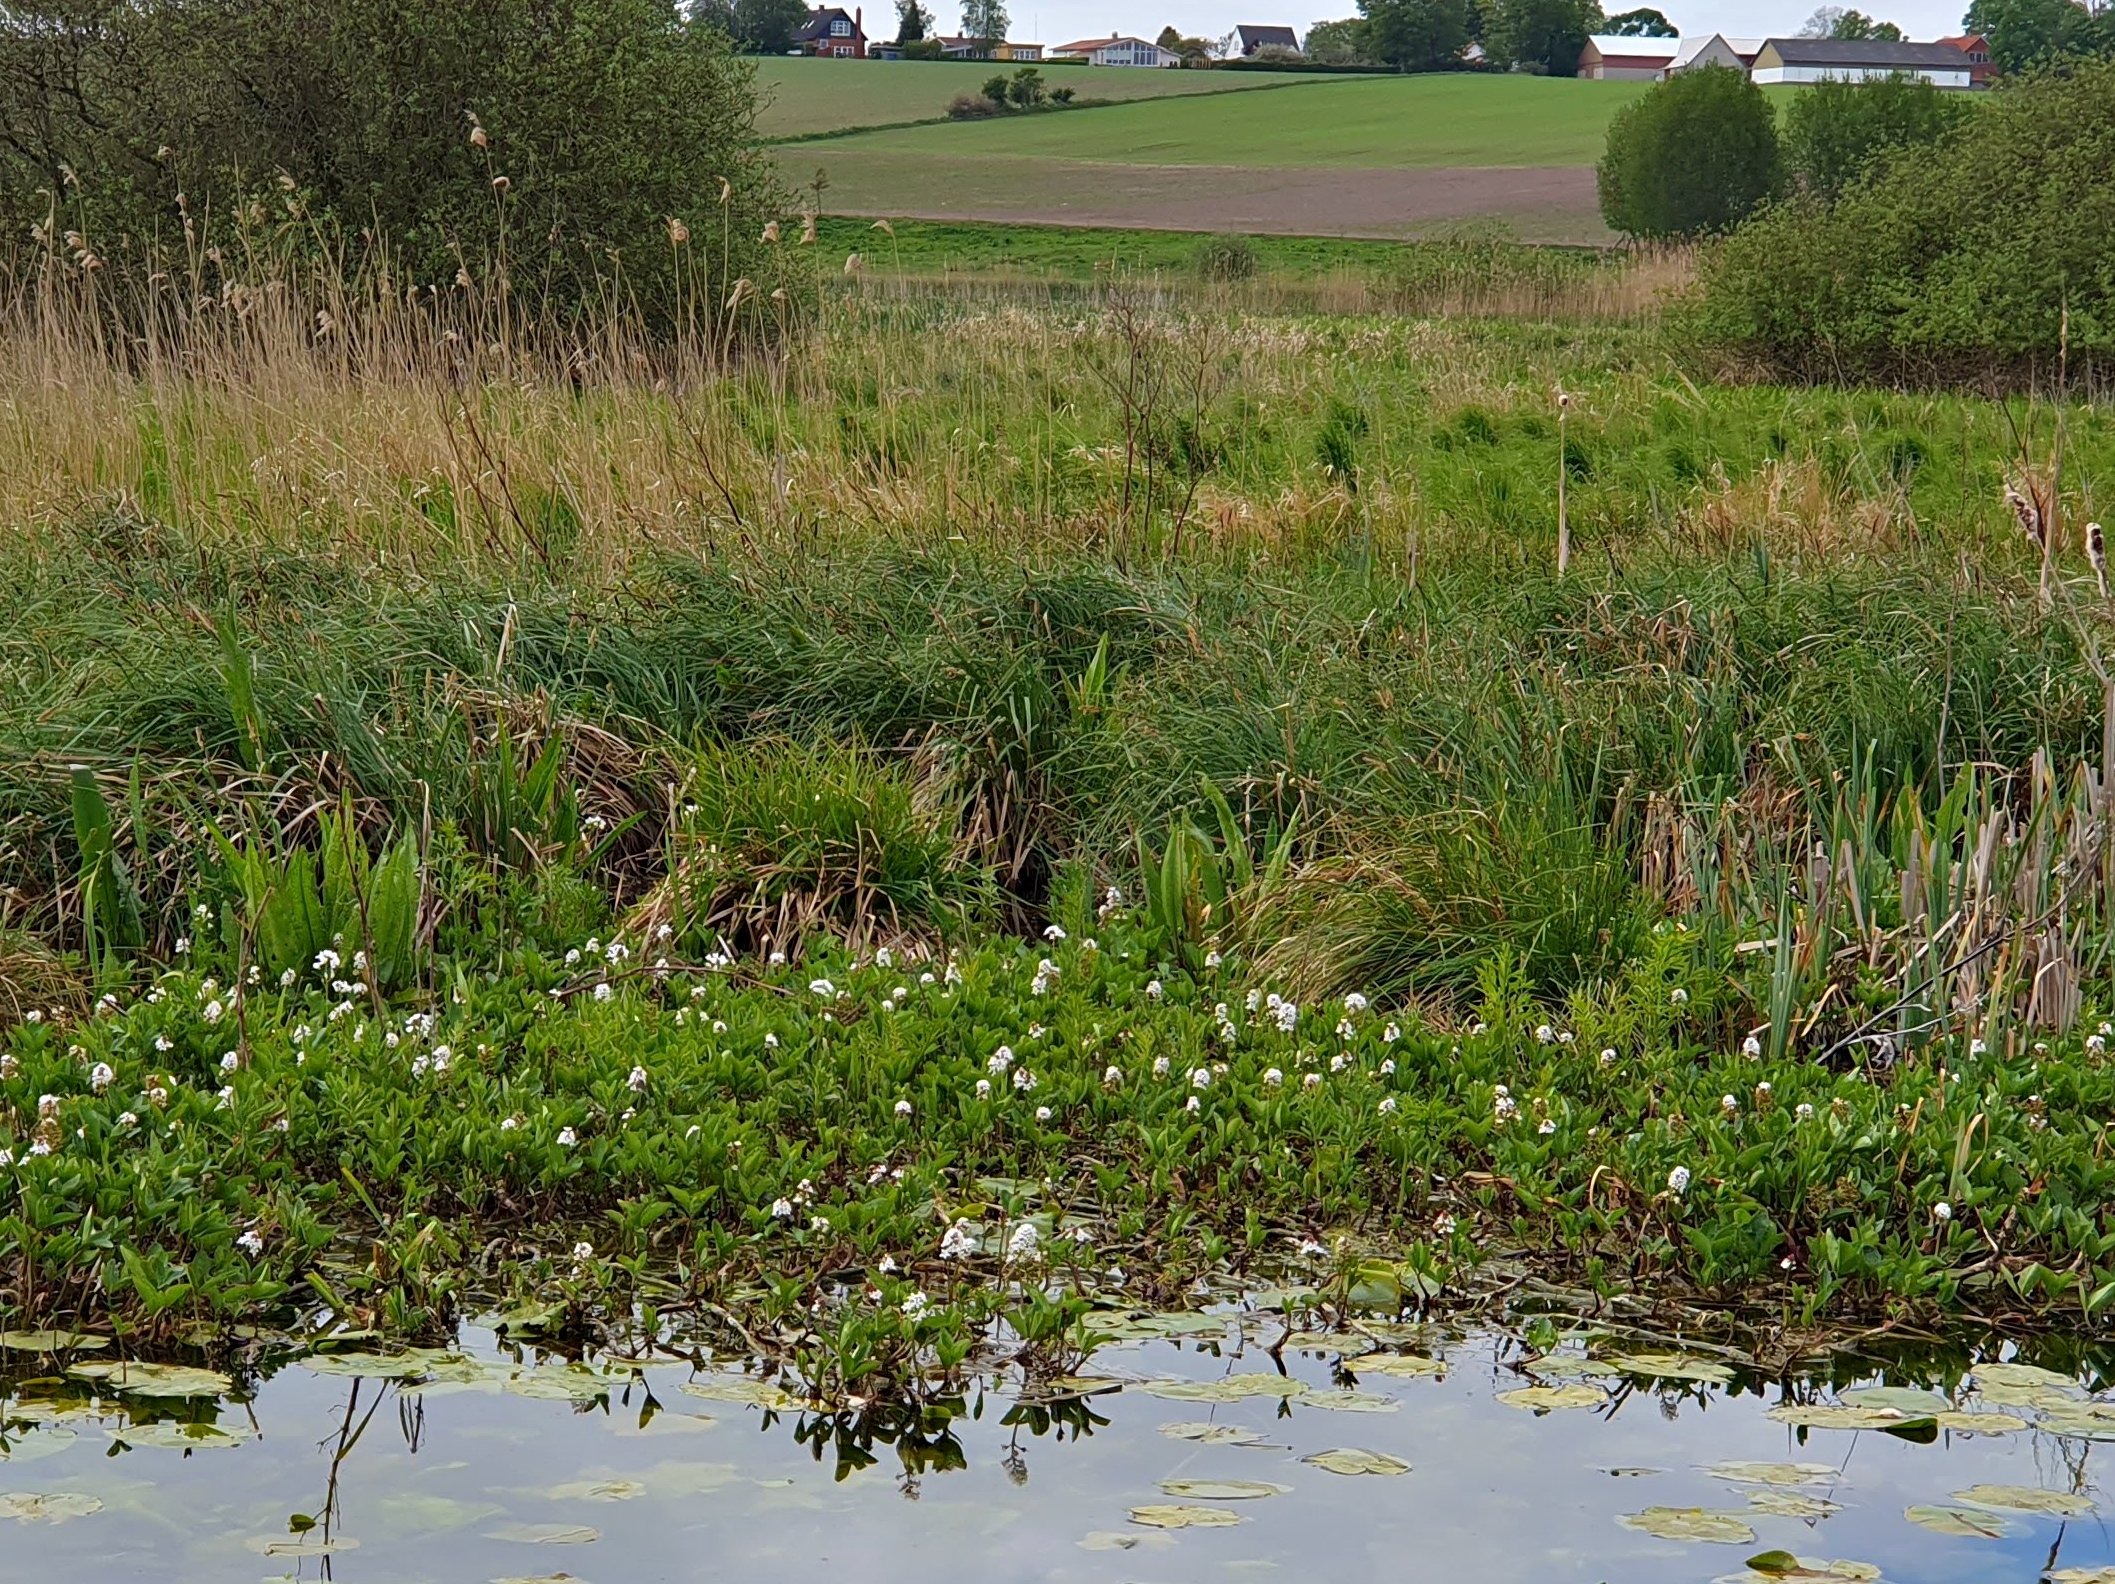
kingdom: Plantae
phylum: Tracheophyta
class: Magnoliopsida
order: Asterales
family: Menyanthaceae
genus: Menyanthes
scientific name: Menyanthes trifoliata
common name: Bukkeblad
